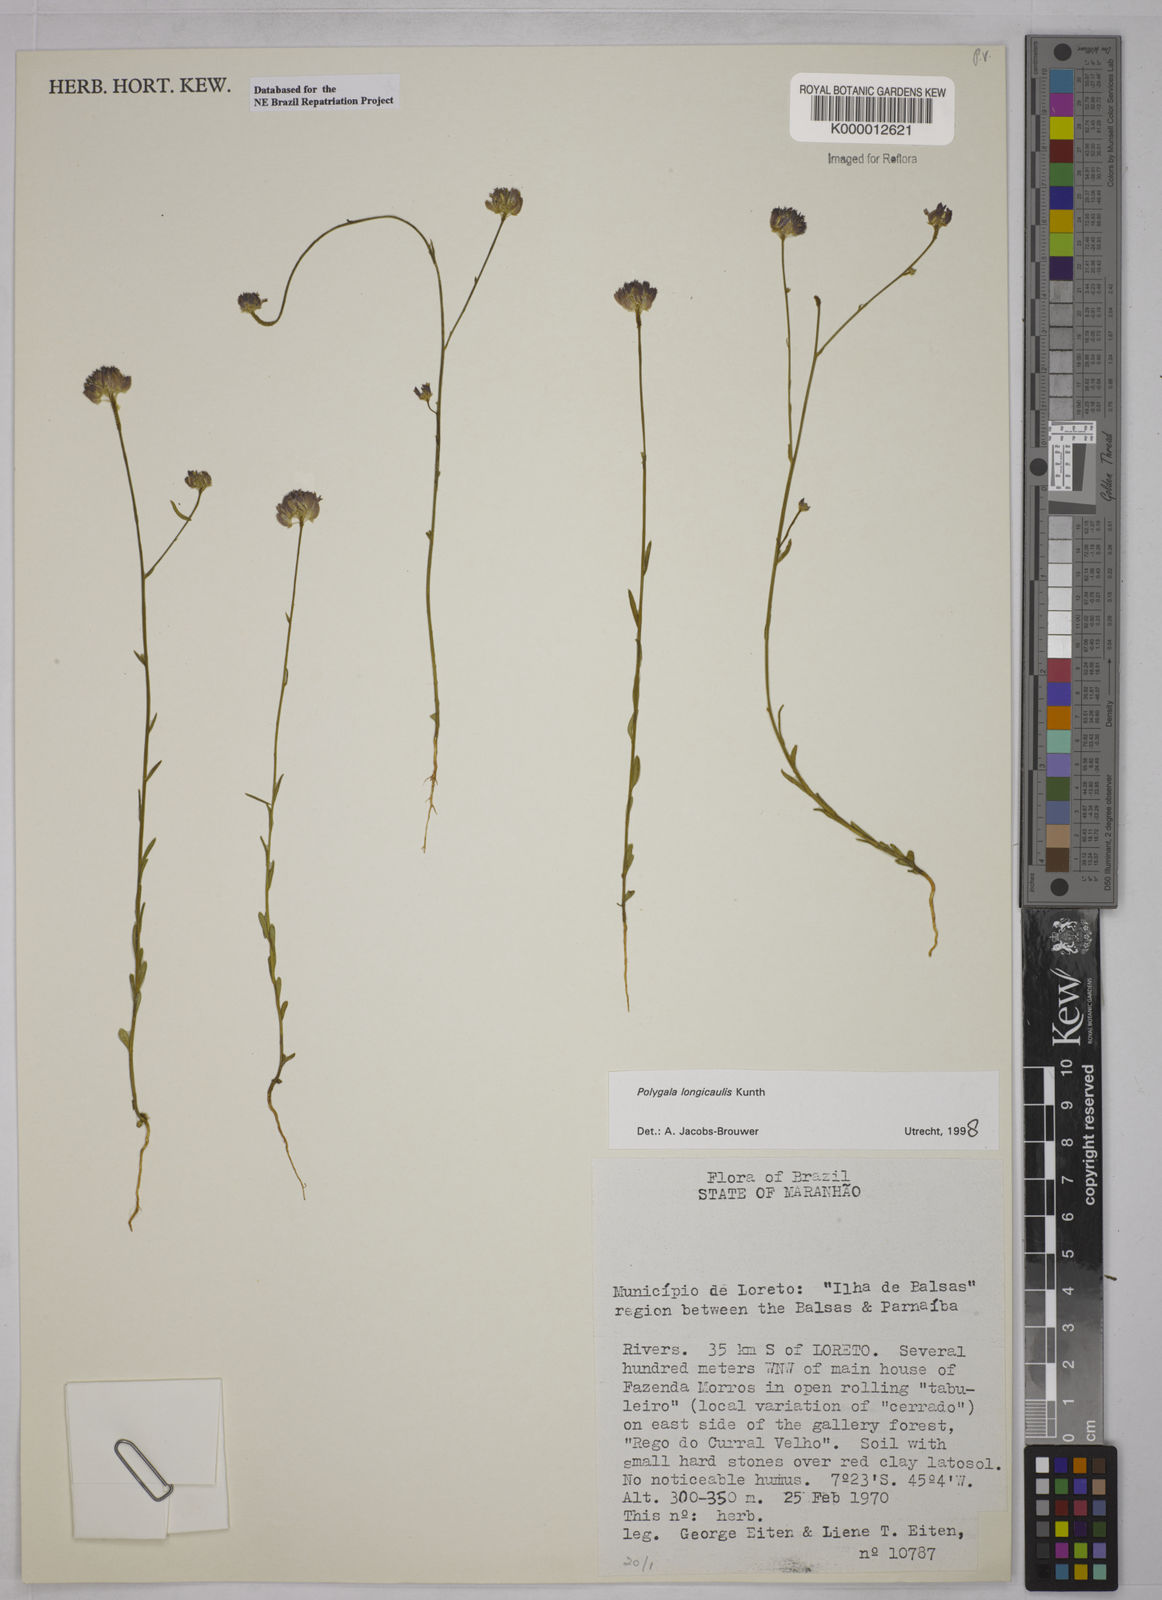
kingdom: Plantae
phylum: Tracheophyta
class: Magnoliopsida
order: Fabales
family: Polygalaceae
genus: Polygala
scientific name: Polygala longicaulis
